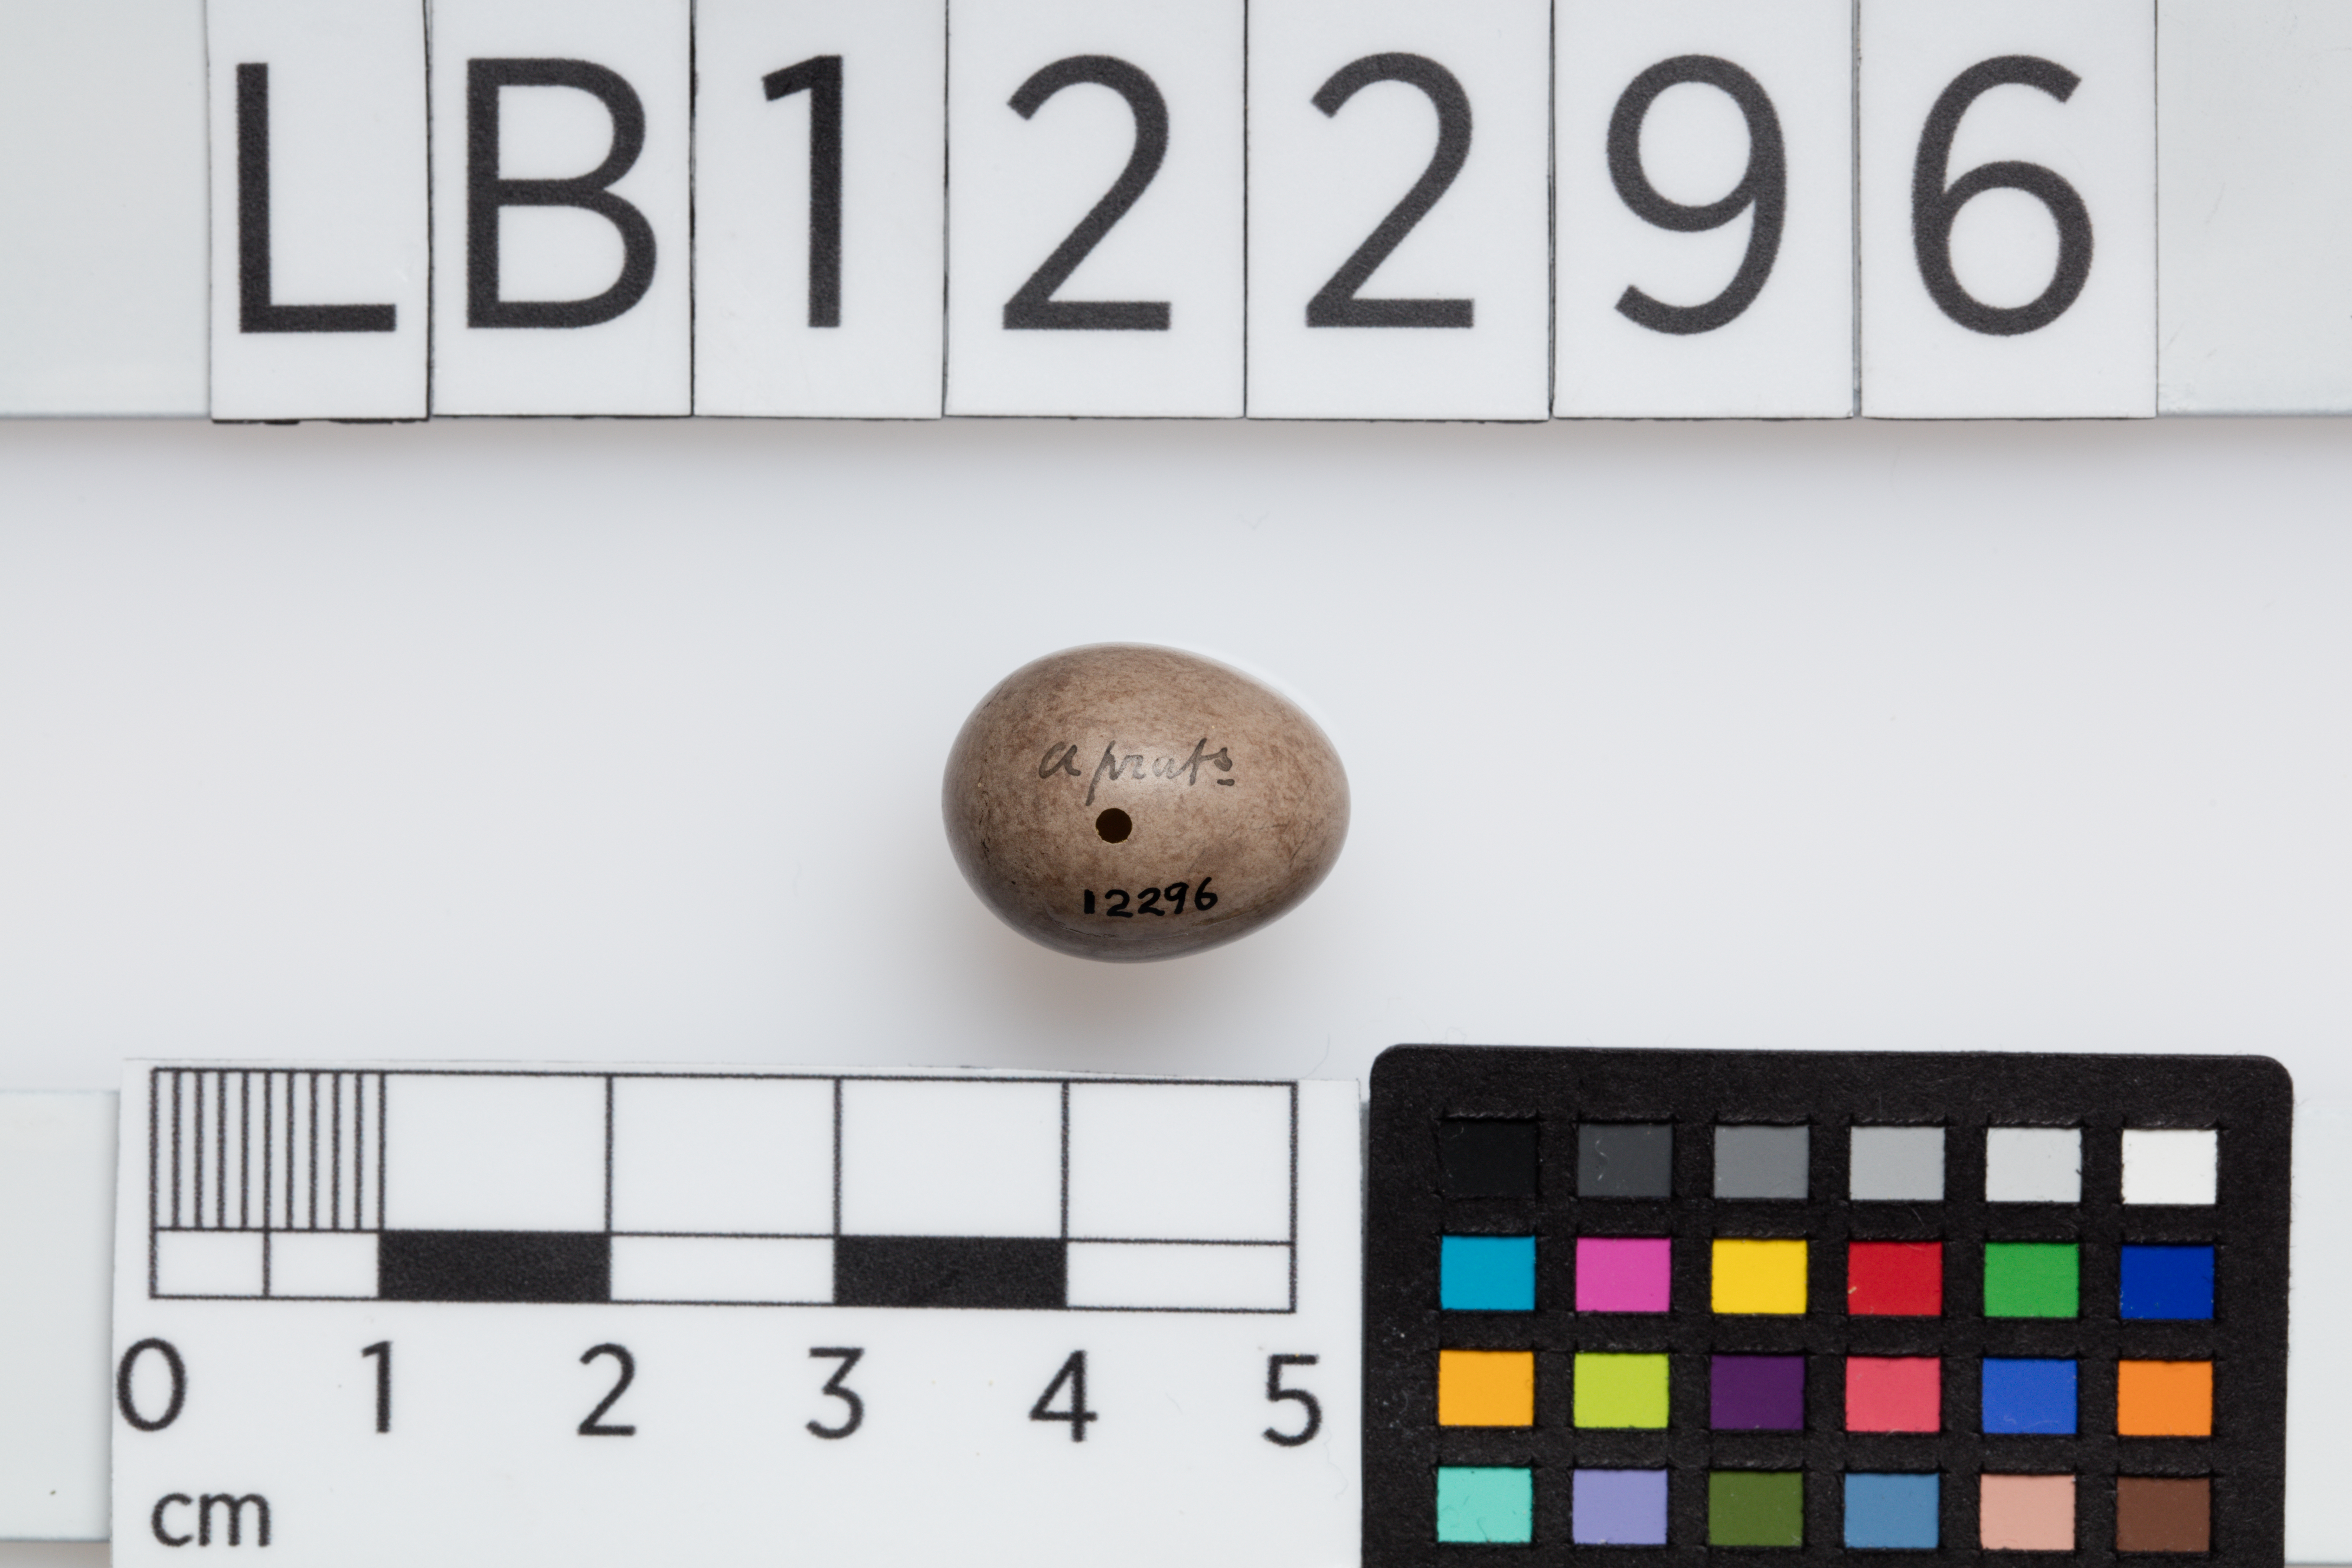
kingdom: Animalia
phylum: Chordata
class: Aves
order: Passeriformes
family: Motacillidae
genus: Anthus
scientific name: Anthus pratensis
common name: Meadow pipit
